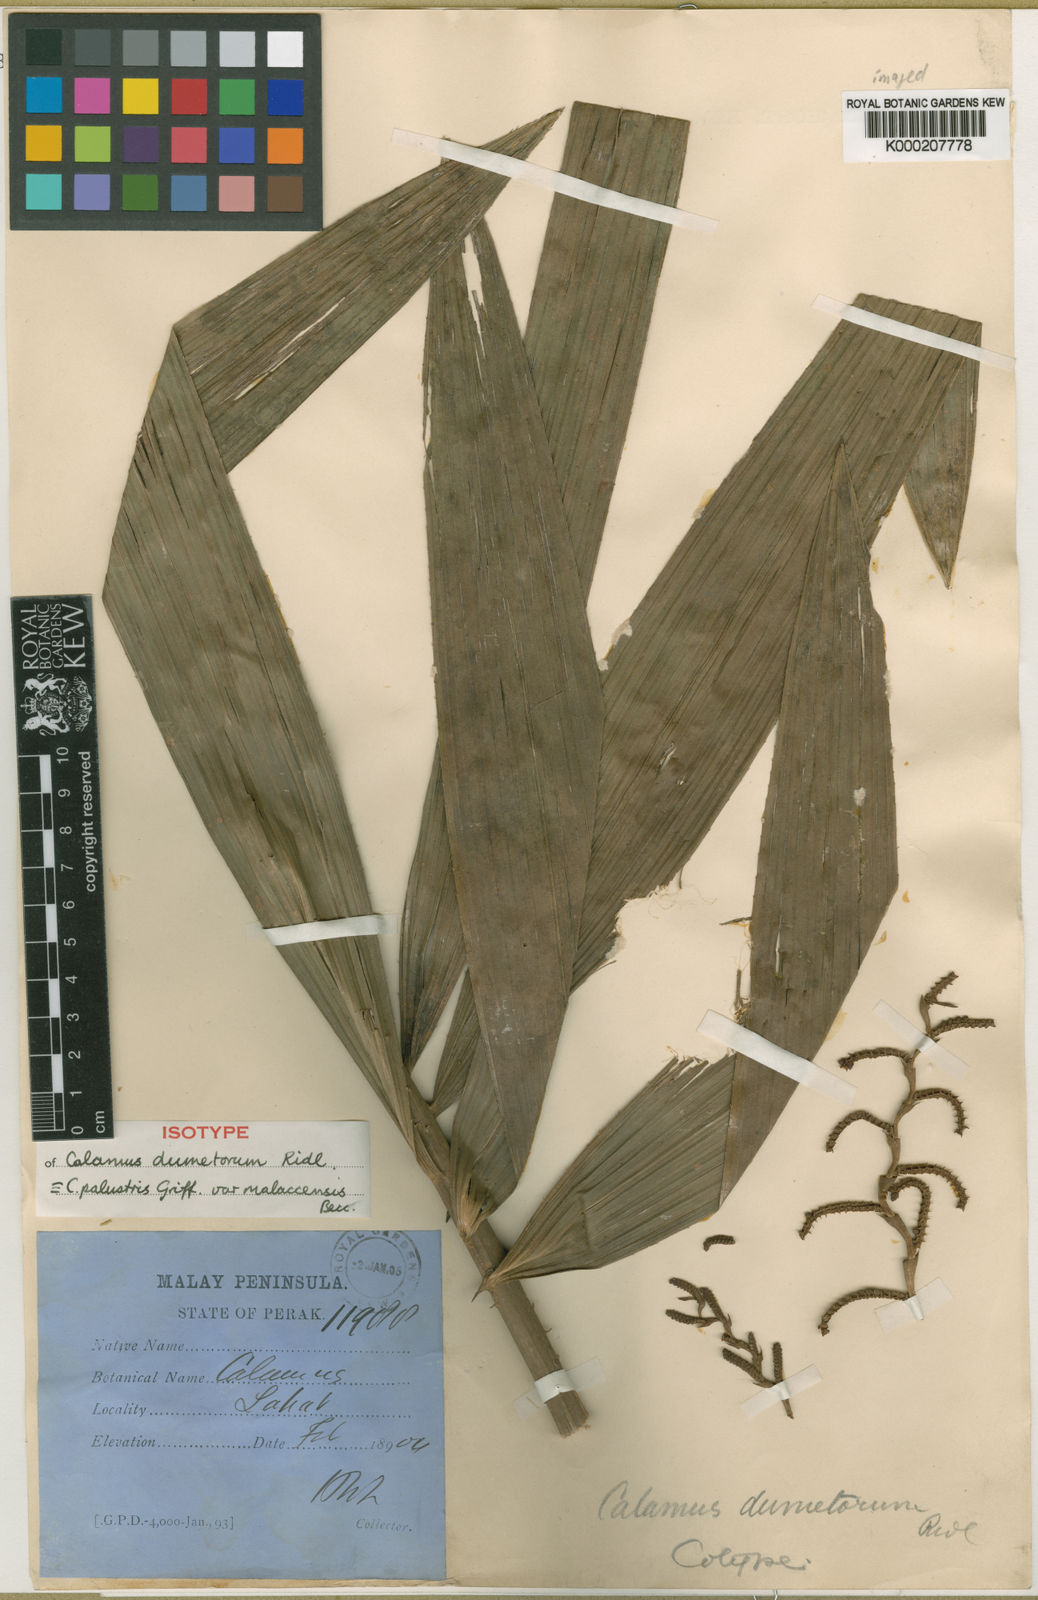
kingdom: Plantae
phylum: Tracheophyta
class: Liliopsida
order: Arecales
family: Arecaceae
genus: Calamus
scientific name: Calamus latifolius
